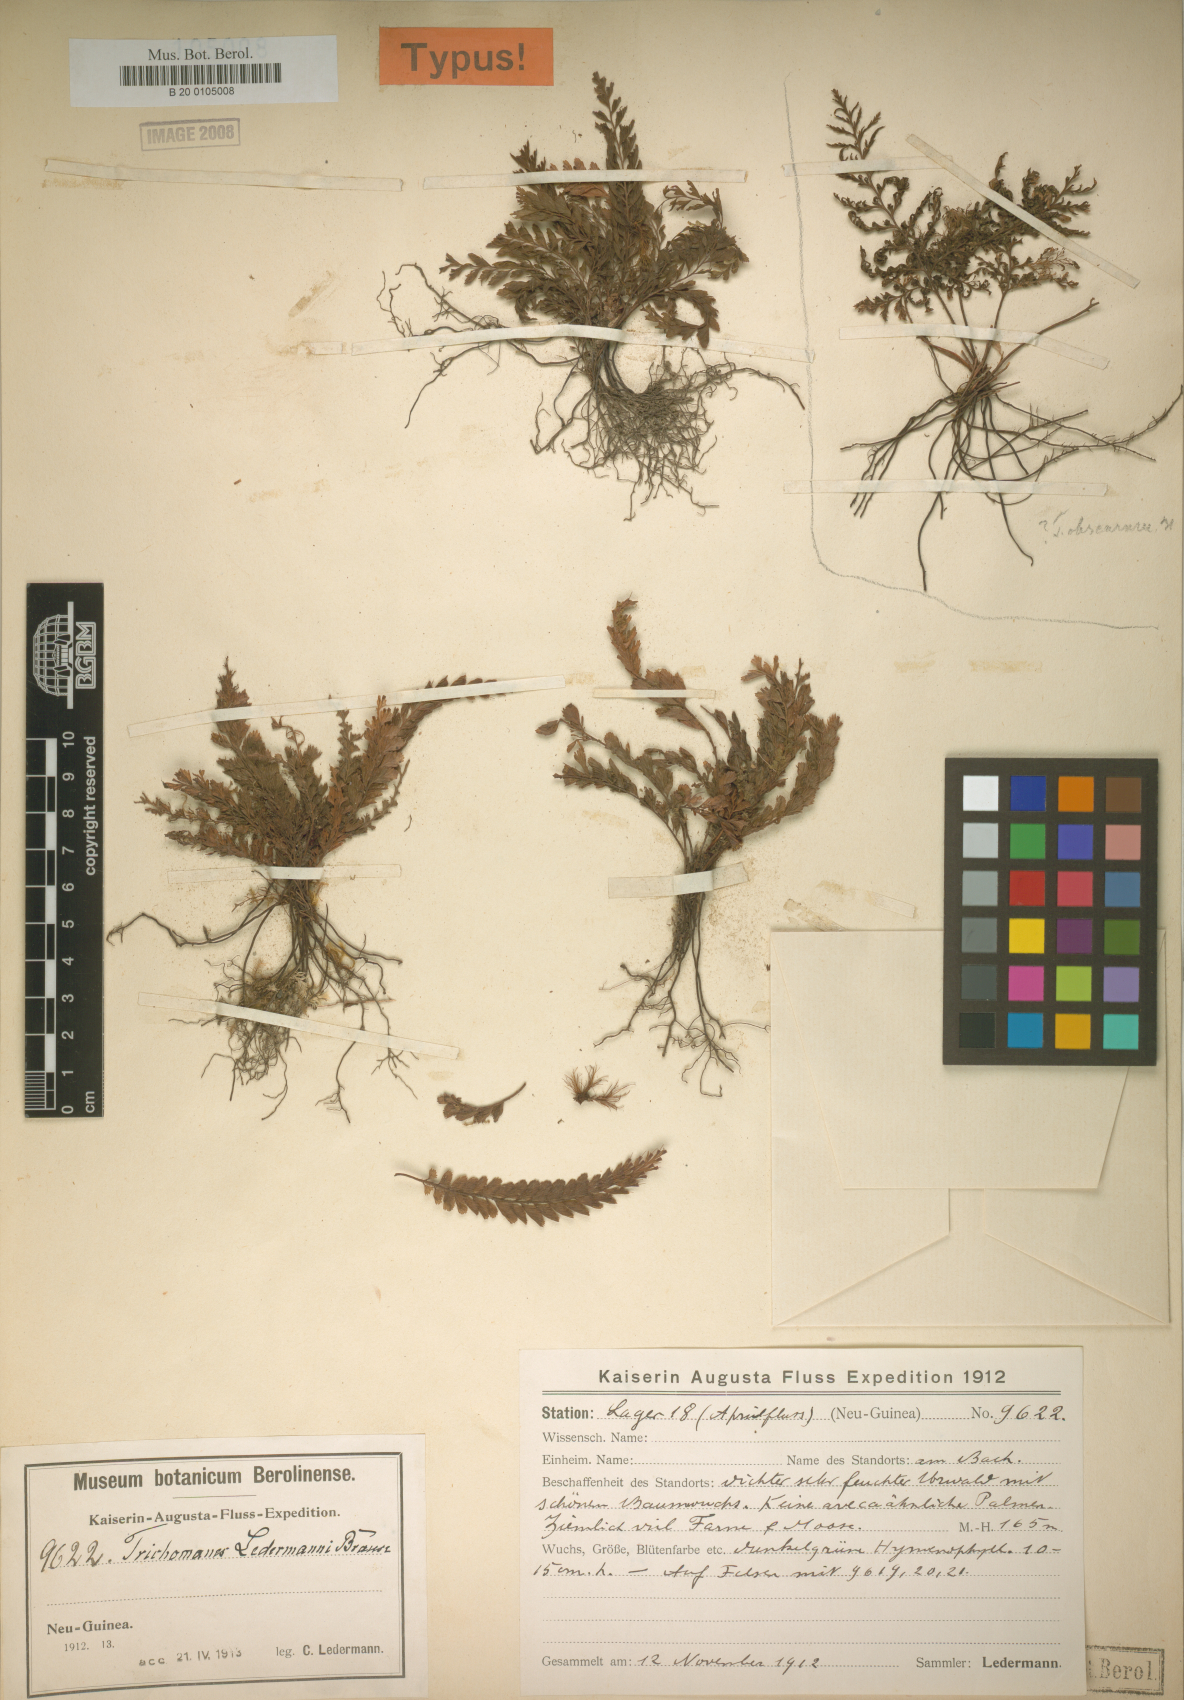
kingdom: Plantae
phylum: Tracheophyta
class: Polypodiopsida
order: Hymenophyllales
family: Hymenophyllaceae
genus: Cephalomanes
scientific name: Cephalomanes atrovirens
